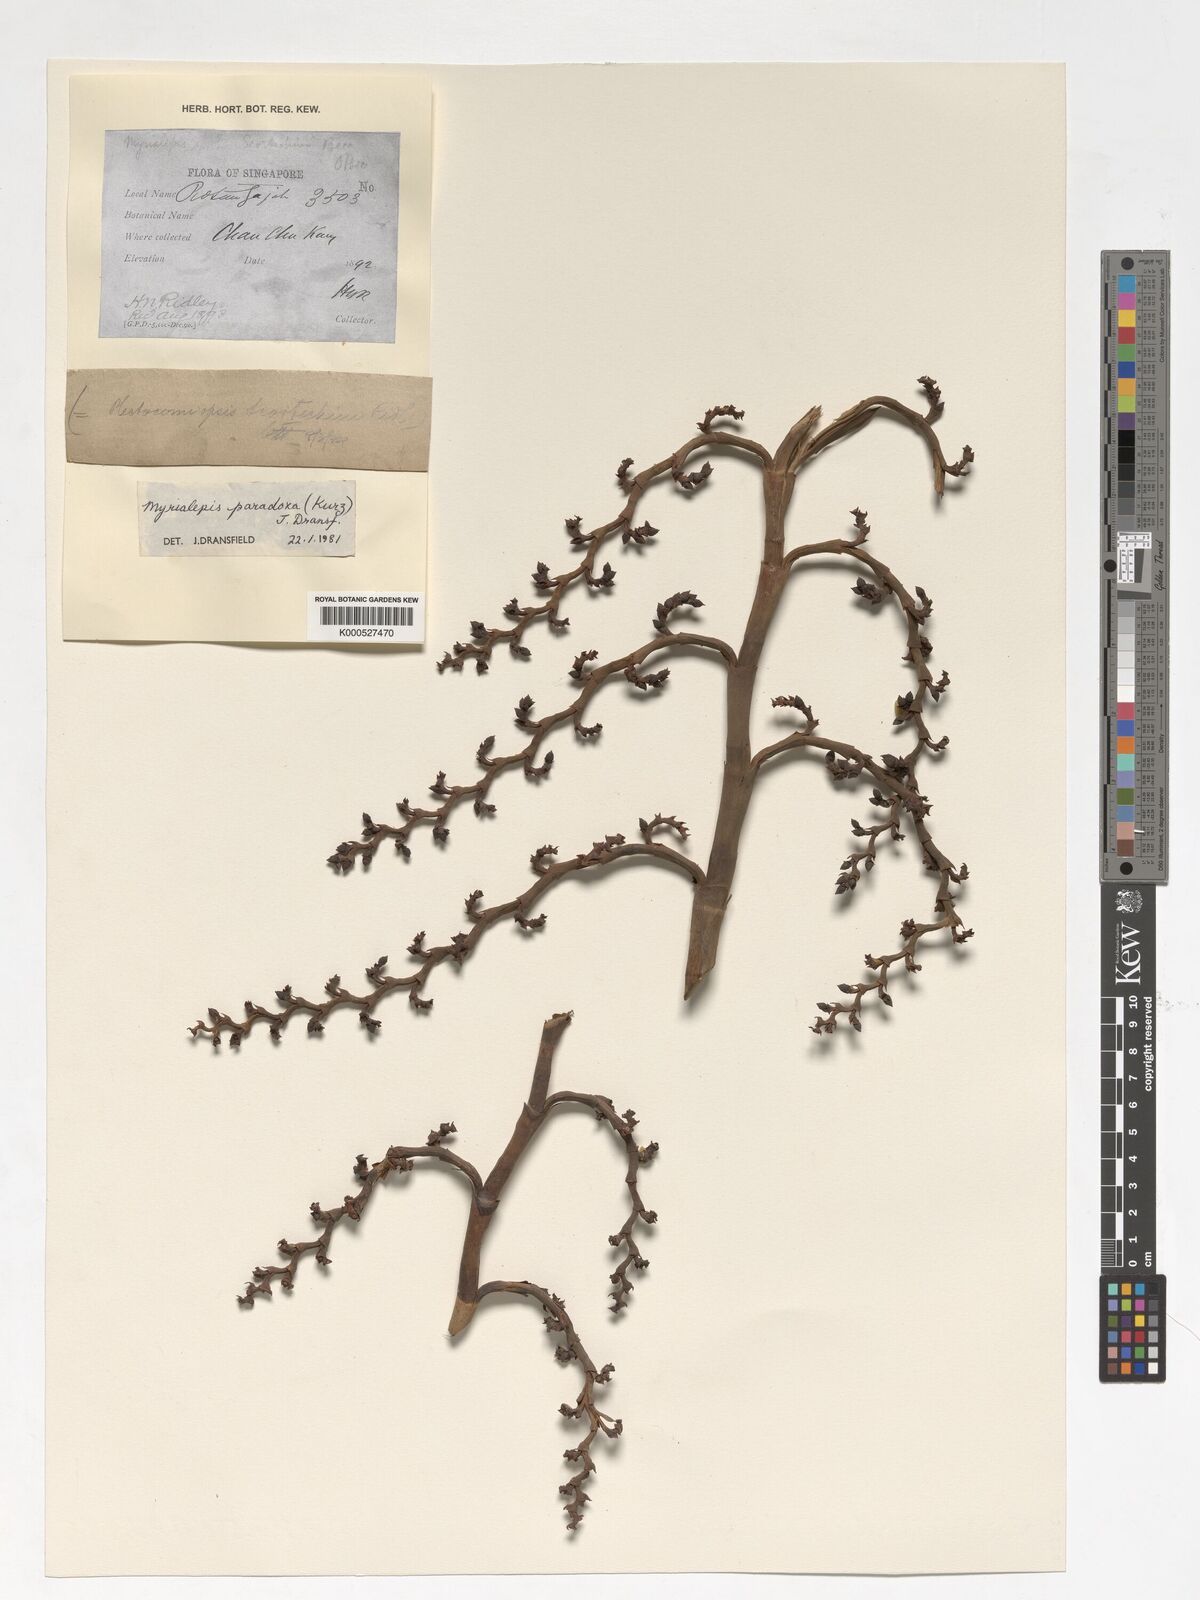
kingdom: Plantae
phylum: Tracheophyta
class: Liliopsida
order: Arecales
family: Arecaceae
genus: Myrialepis
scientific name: Myrialepis paradoxa
